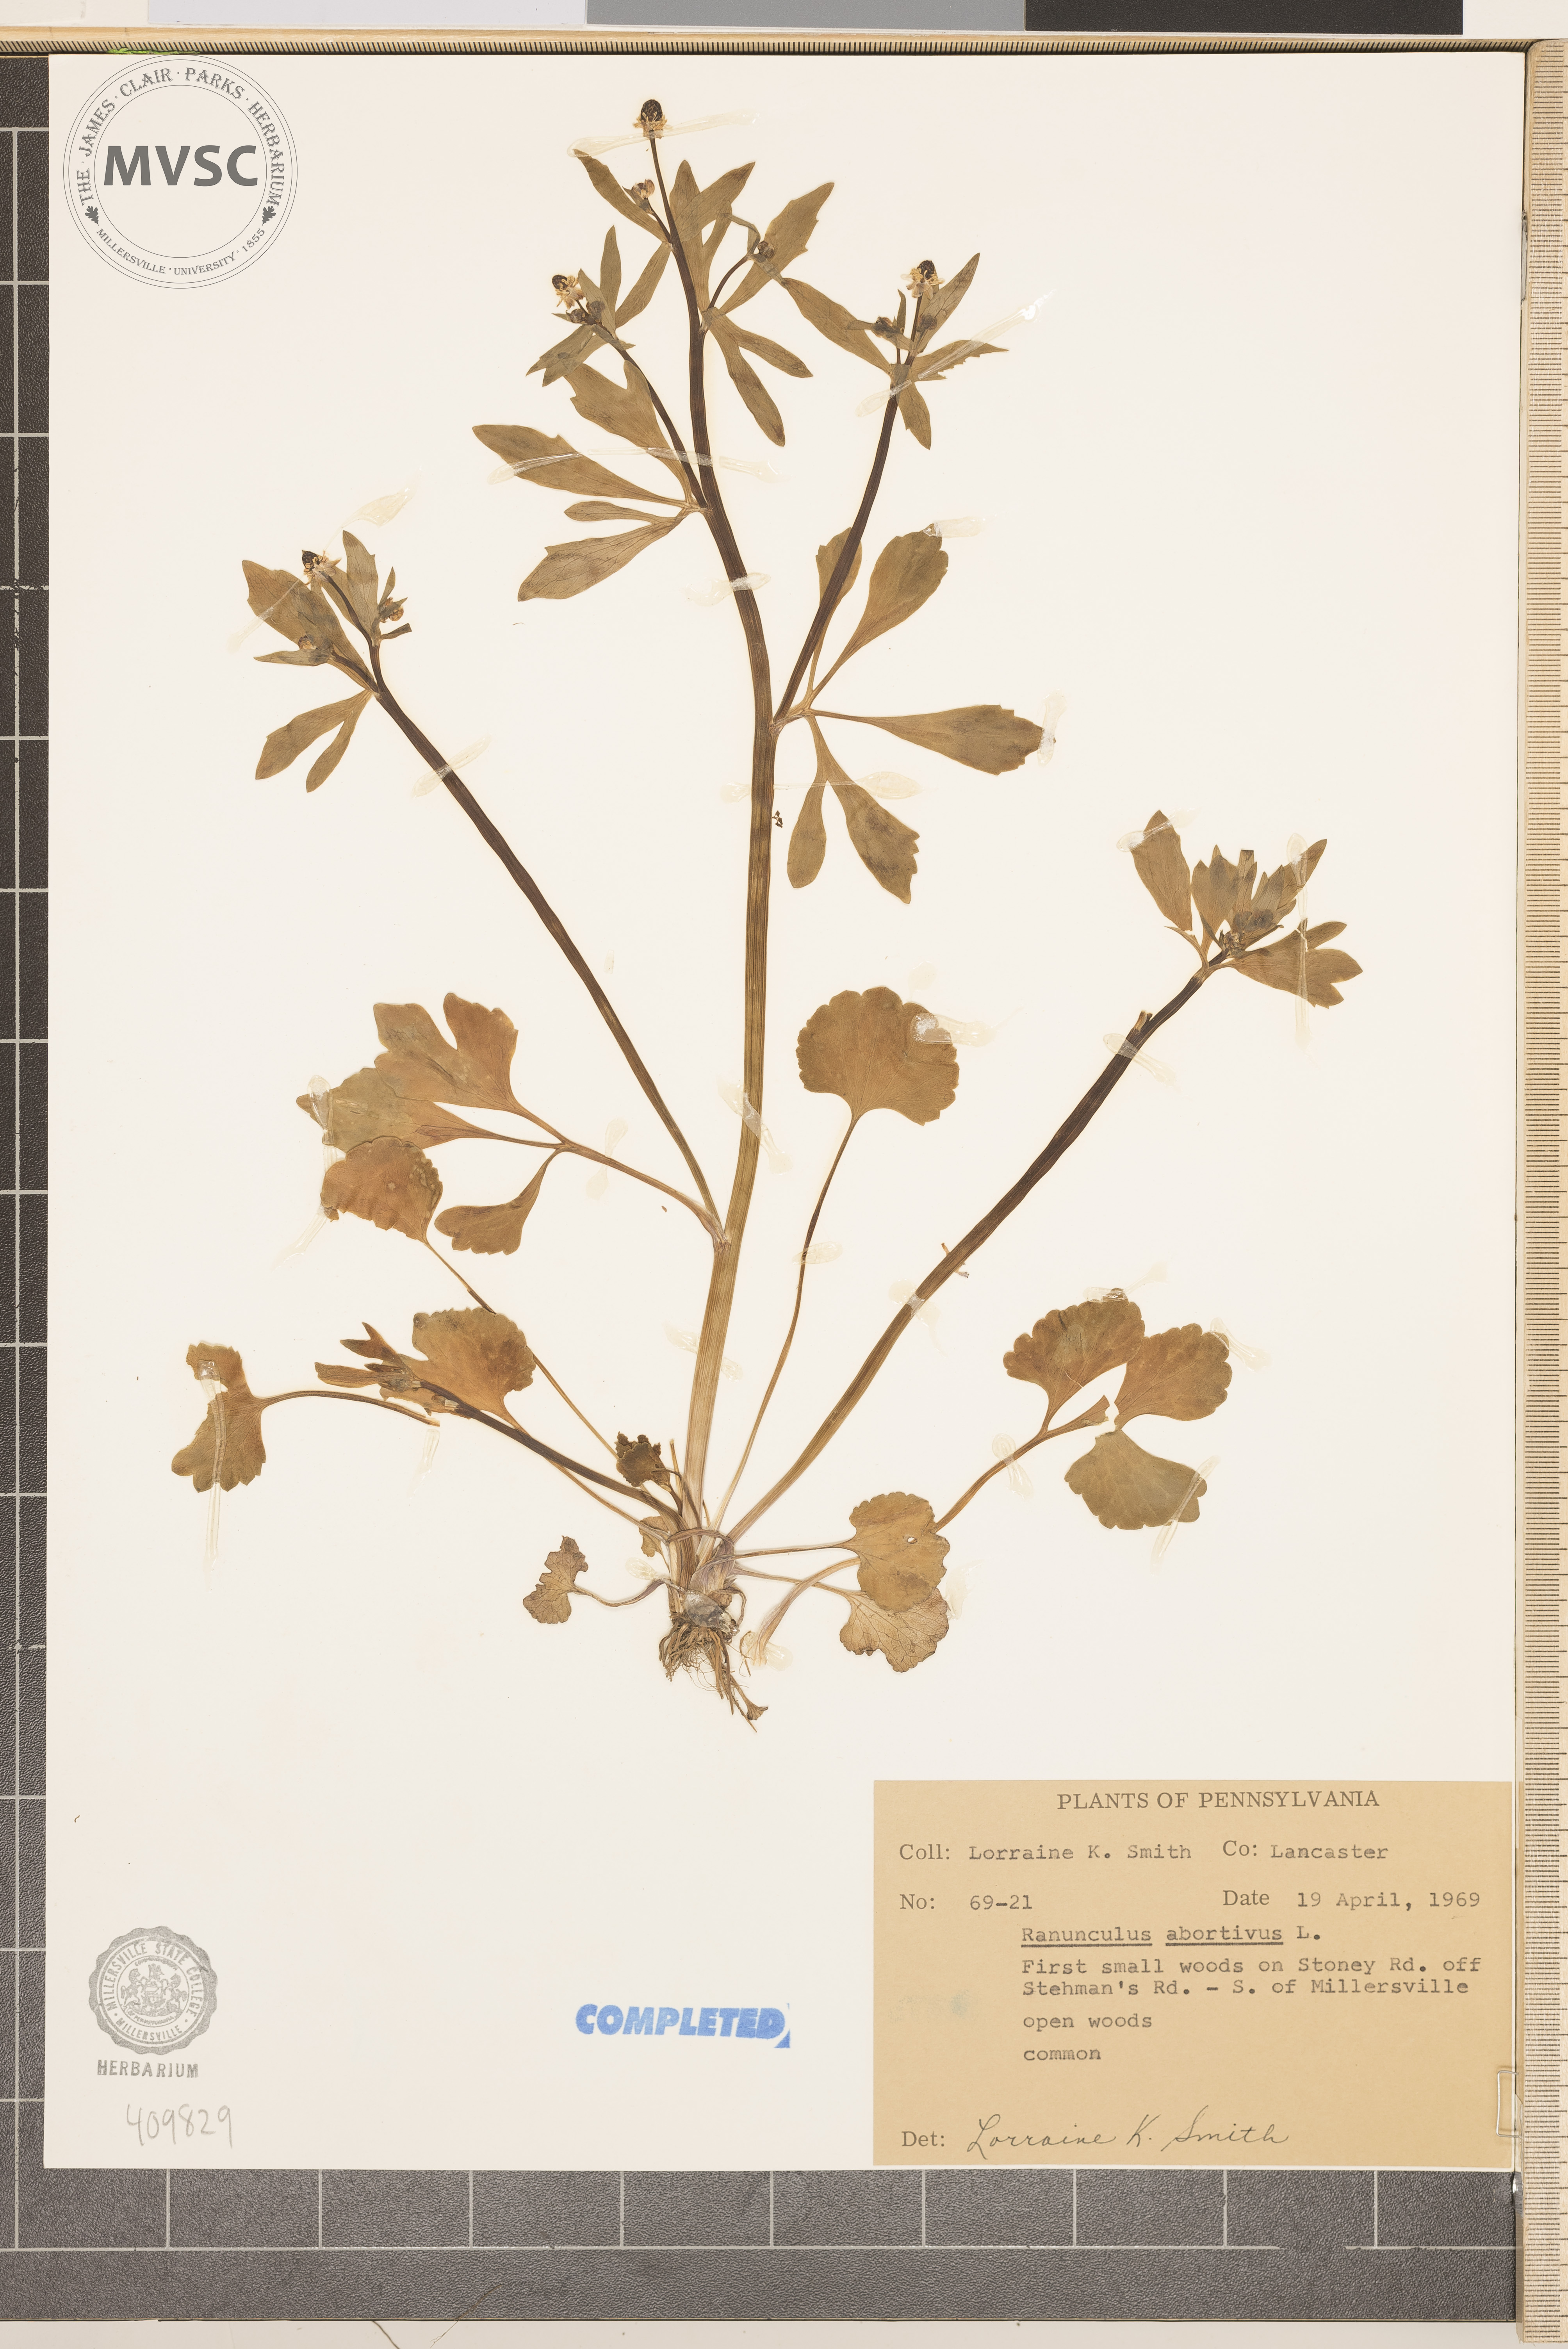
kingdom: Plantae
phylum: Tracheophyta
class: Magnoliopsida
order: Ranunculales
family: Ranunculaceae
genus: Ranunculus
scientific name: Ranunculus abortivus
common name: Early wood buttercup
